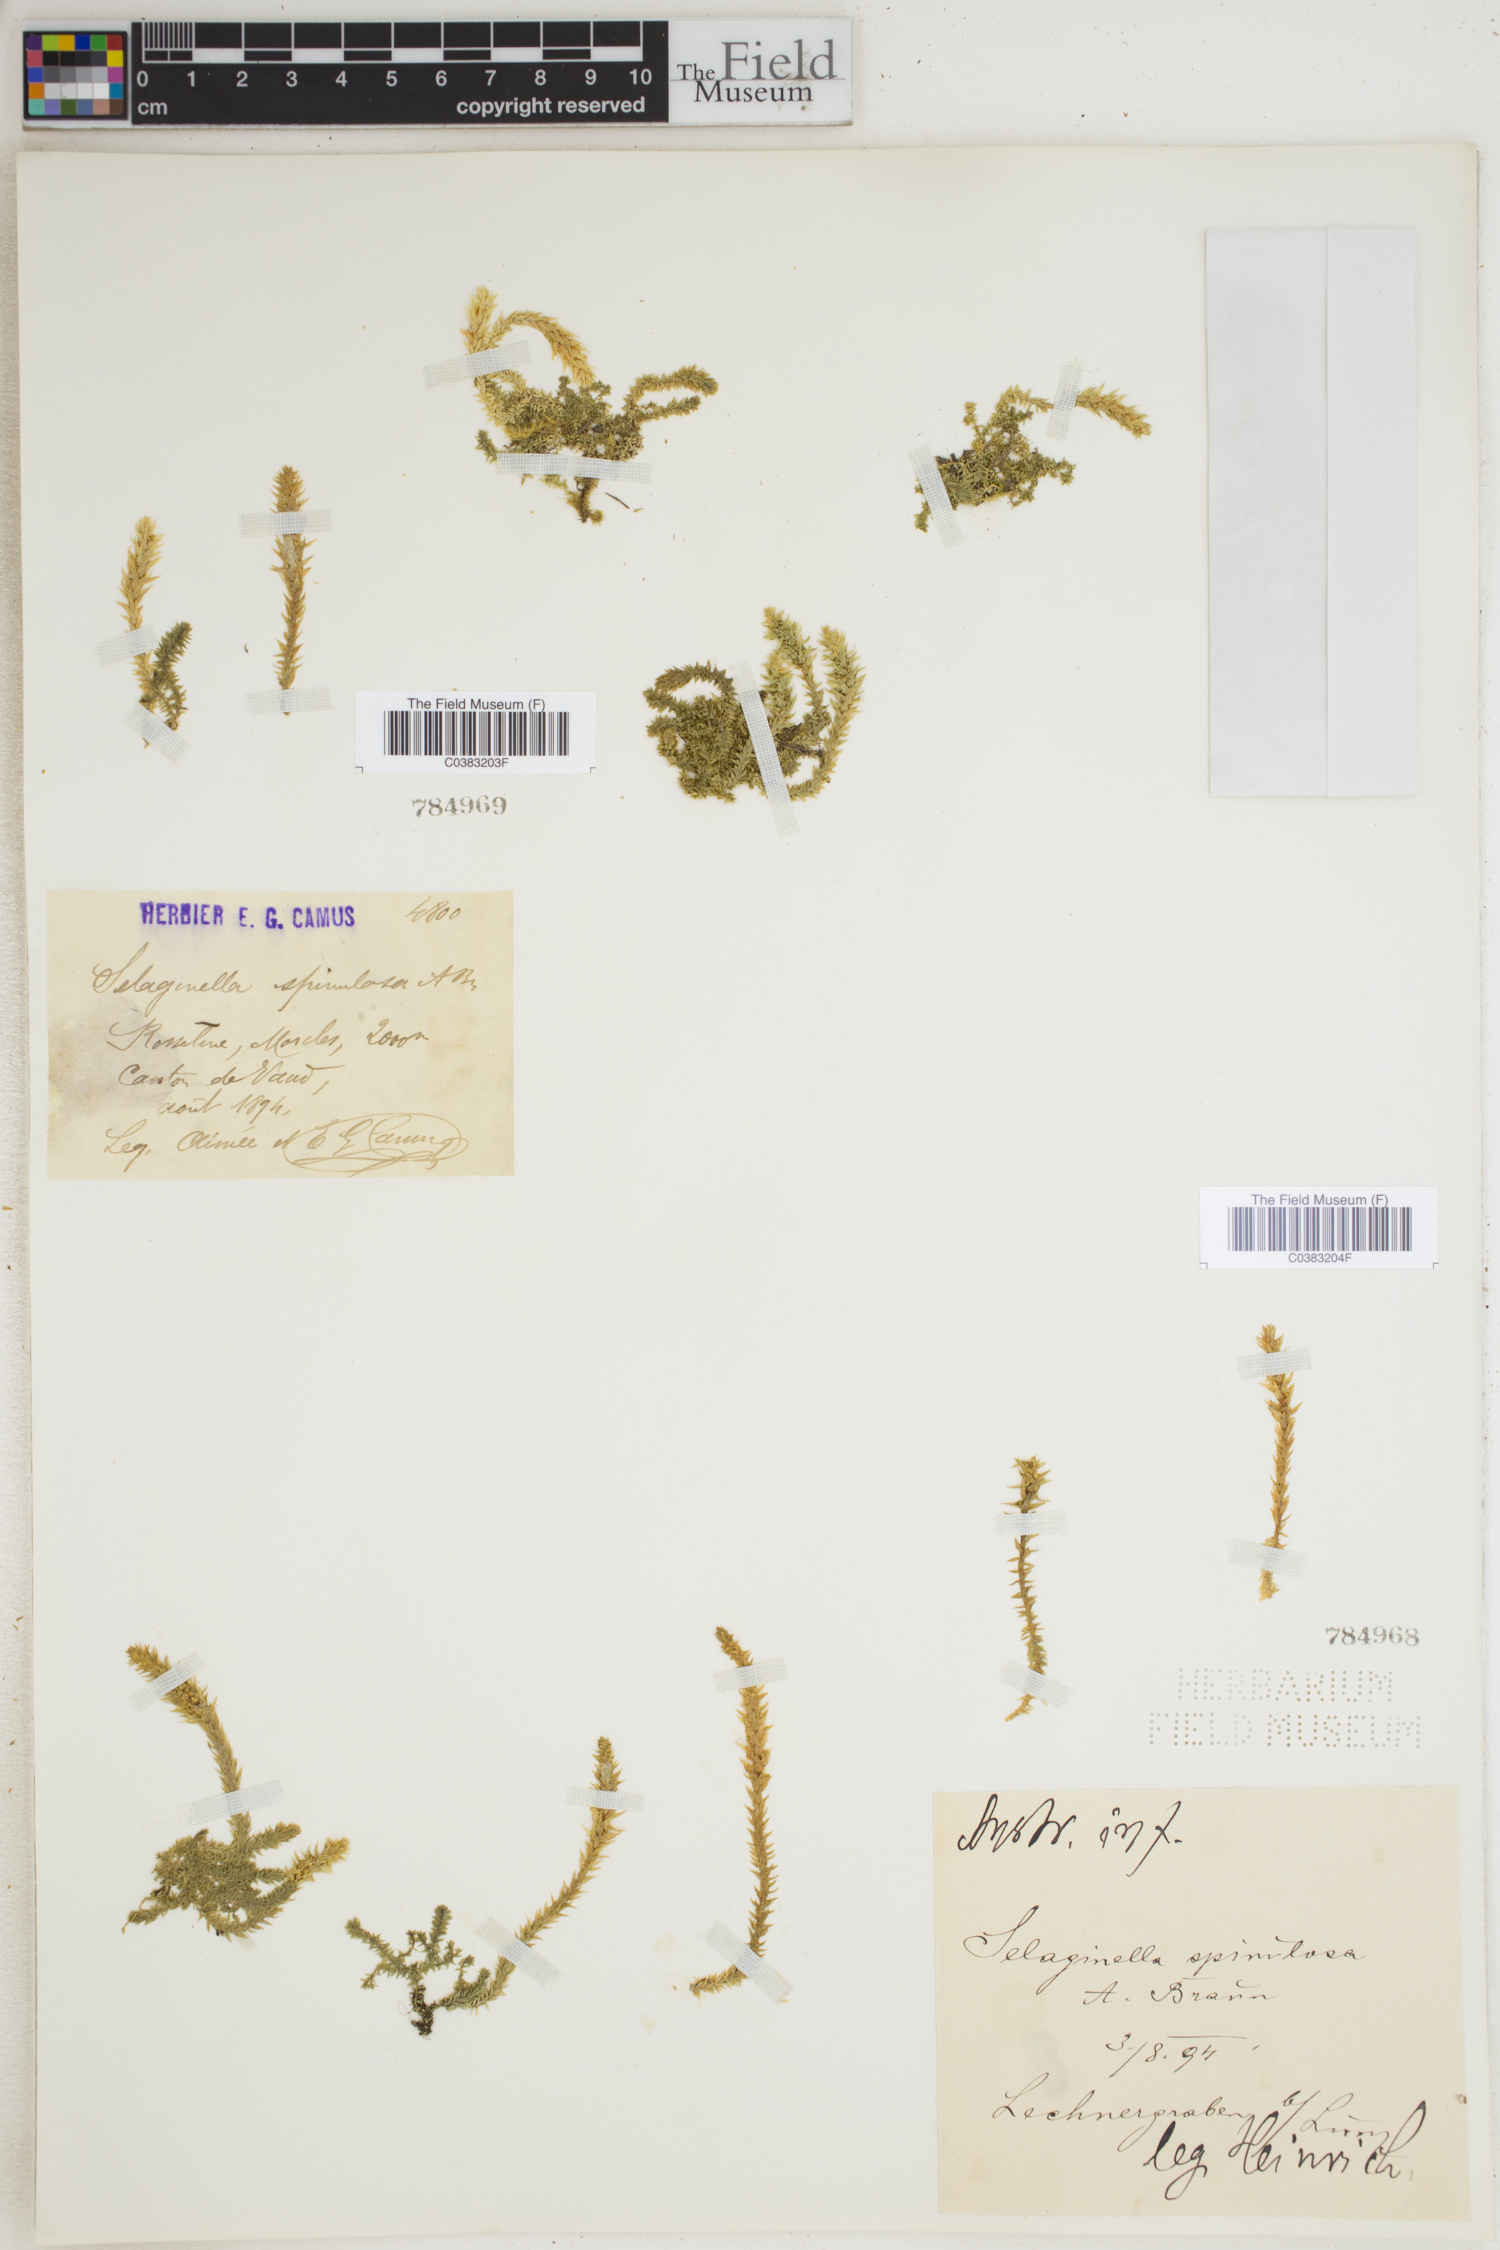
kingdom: Plantae
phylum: Tracheophyta
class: Lycopodiopsida
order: Selaginellales
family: Selaginellaceae
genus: Selaginella
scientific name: Selaginella selaginoides
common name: Prickly mountain-moss
